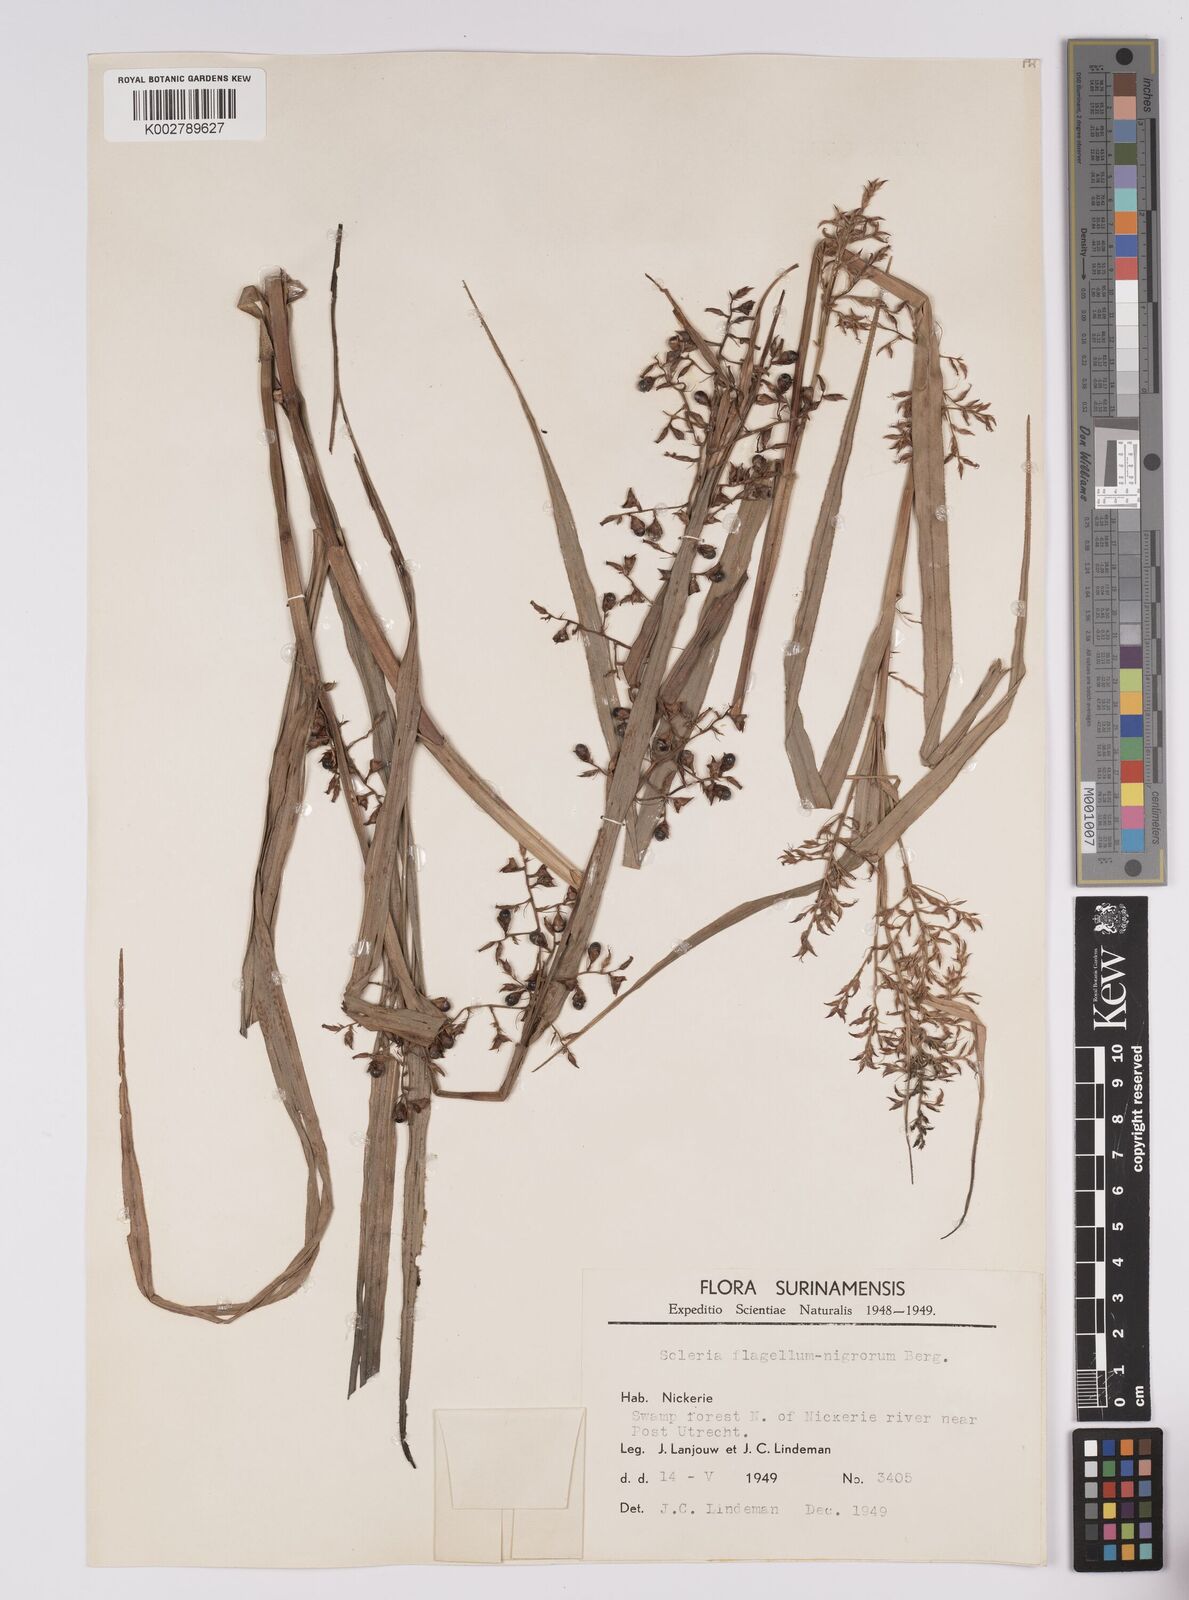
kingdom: Plantae
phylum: Tracheophyta
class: Liliopsida
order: Poales
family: Cyperaceae
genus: Scleria
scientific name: Scleria flagellum-nigrorum
